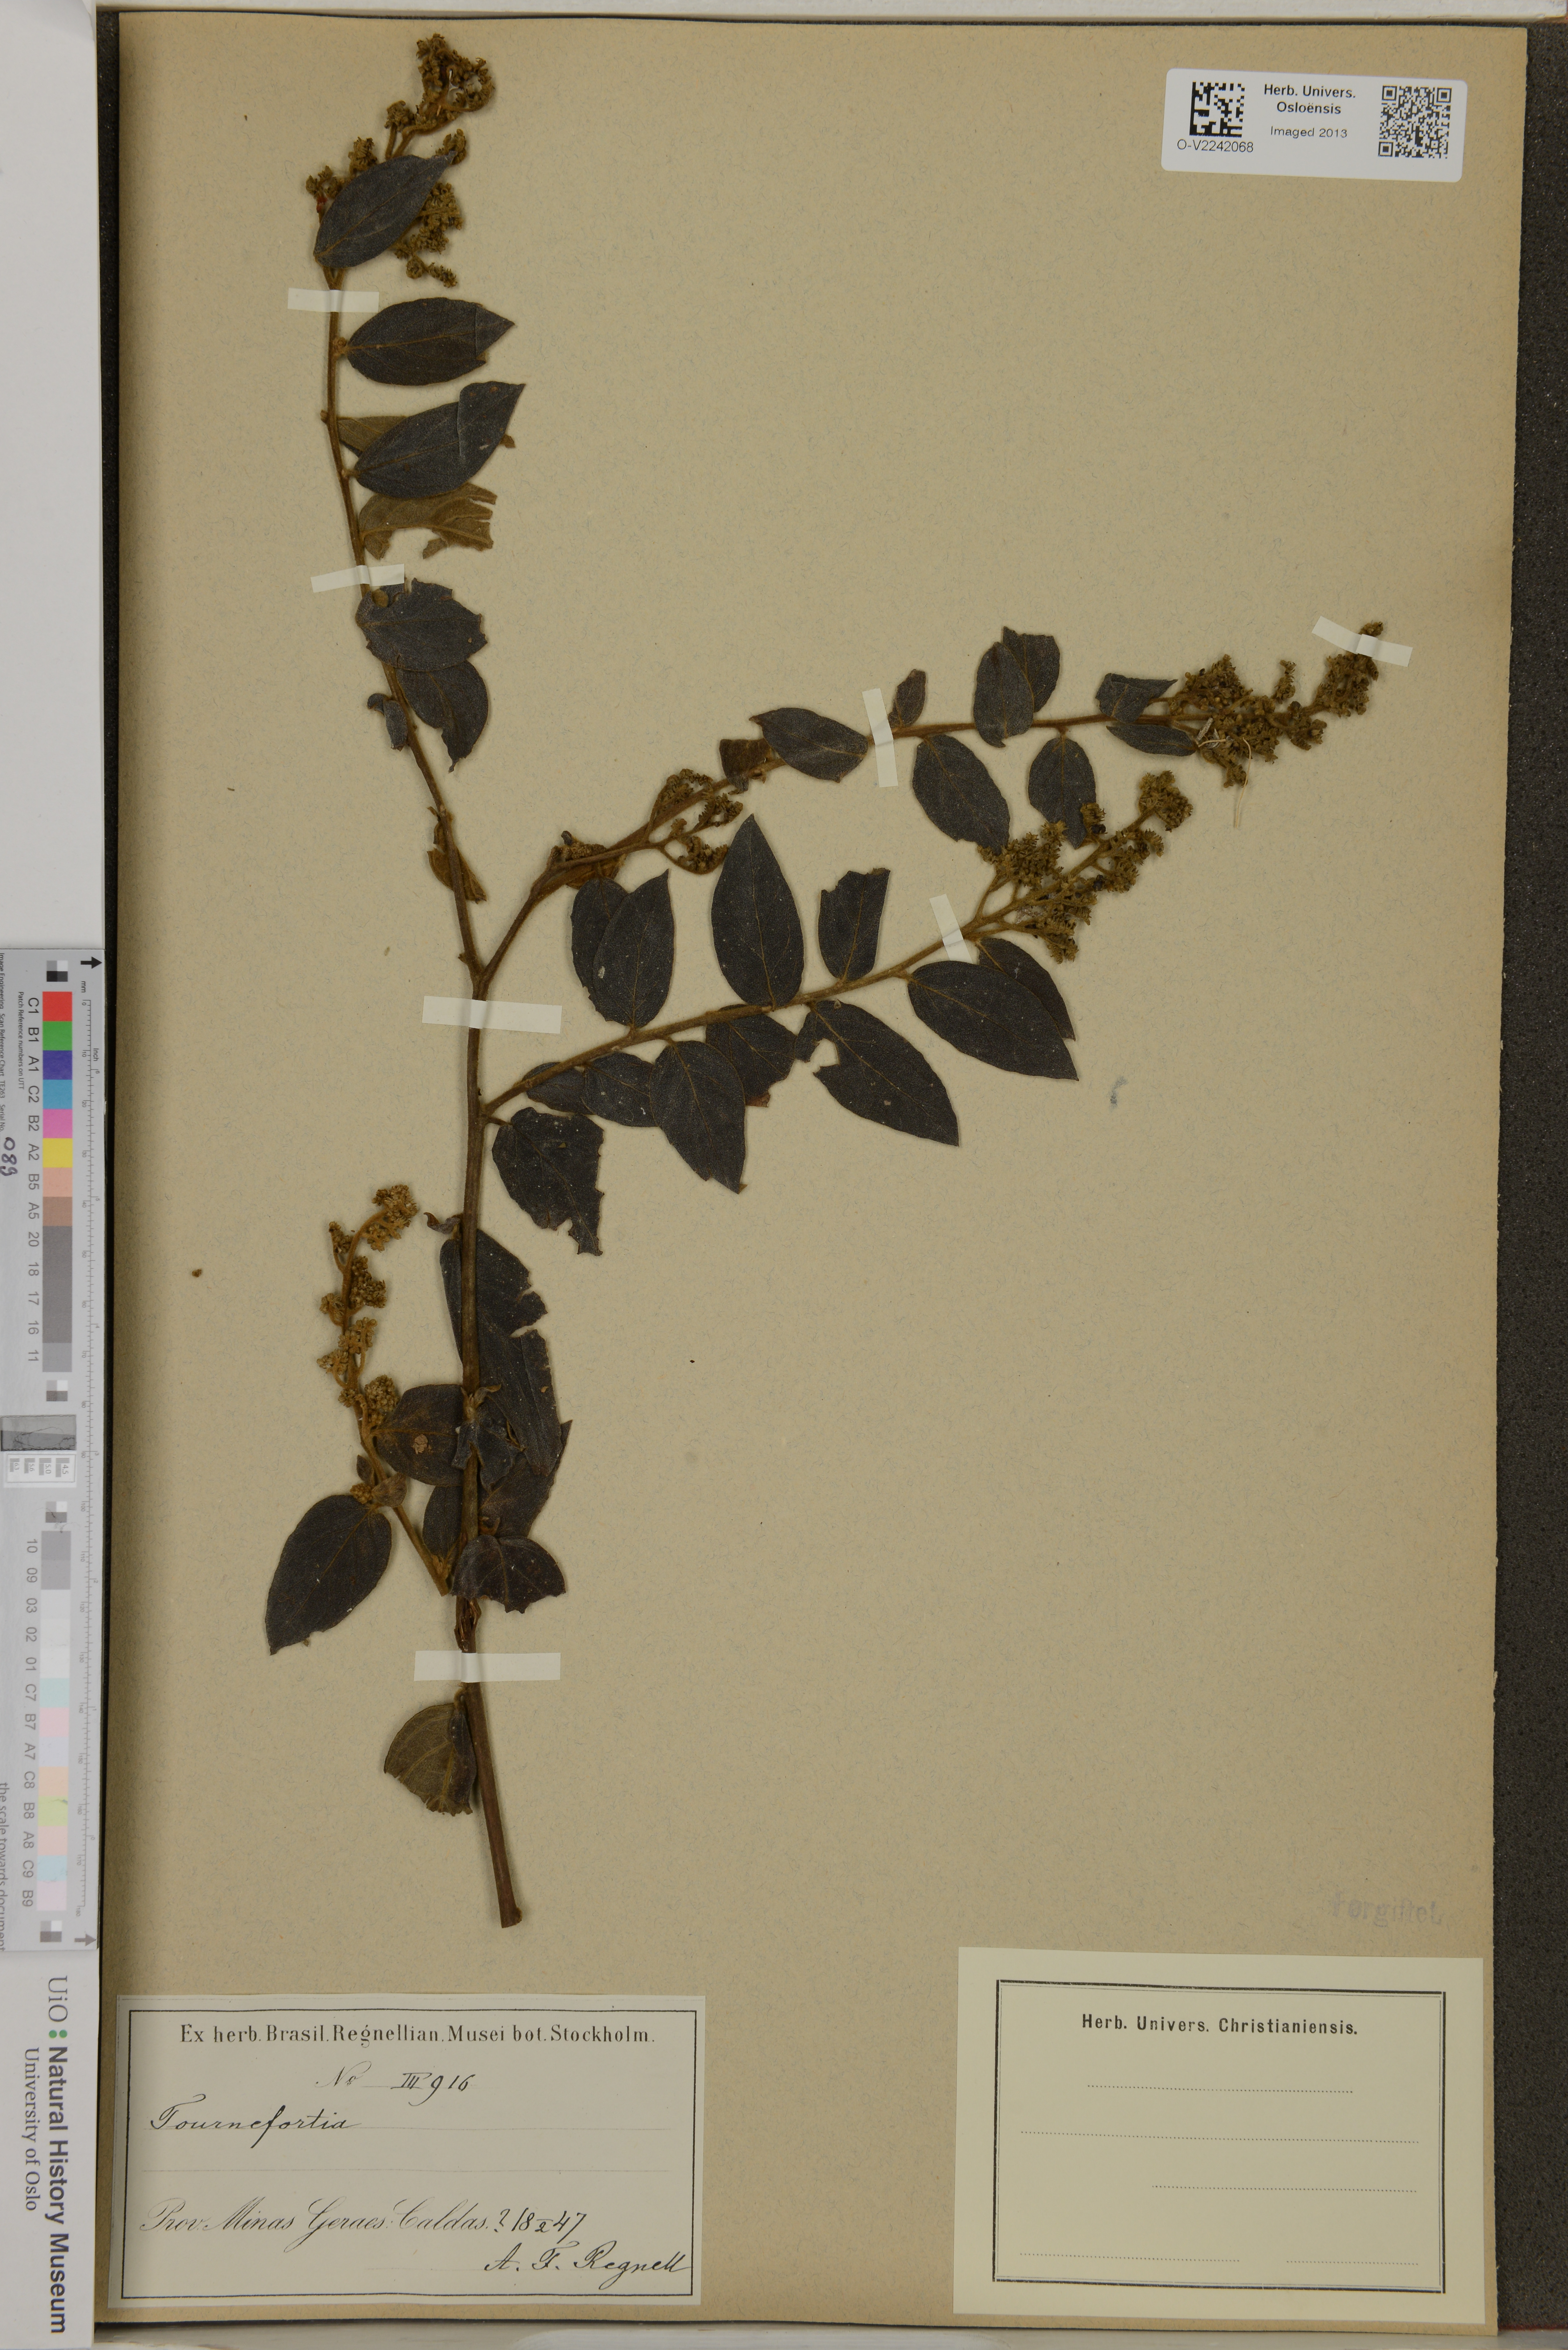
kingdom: Plantae
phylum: Tracheophyta
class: Magnoliopsida
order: Boraginales
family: Heliotropiaceae
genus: Tournefortia
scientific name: Tournefortia
